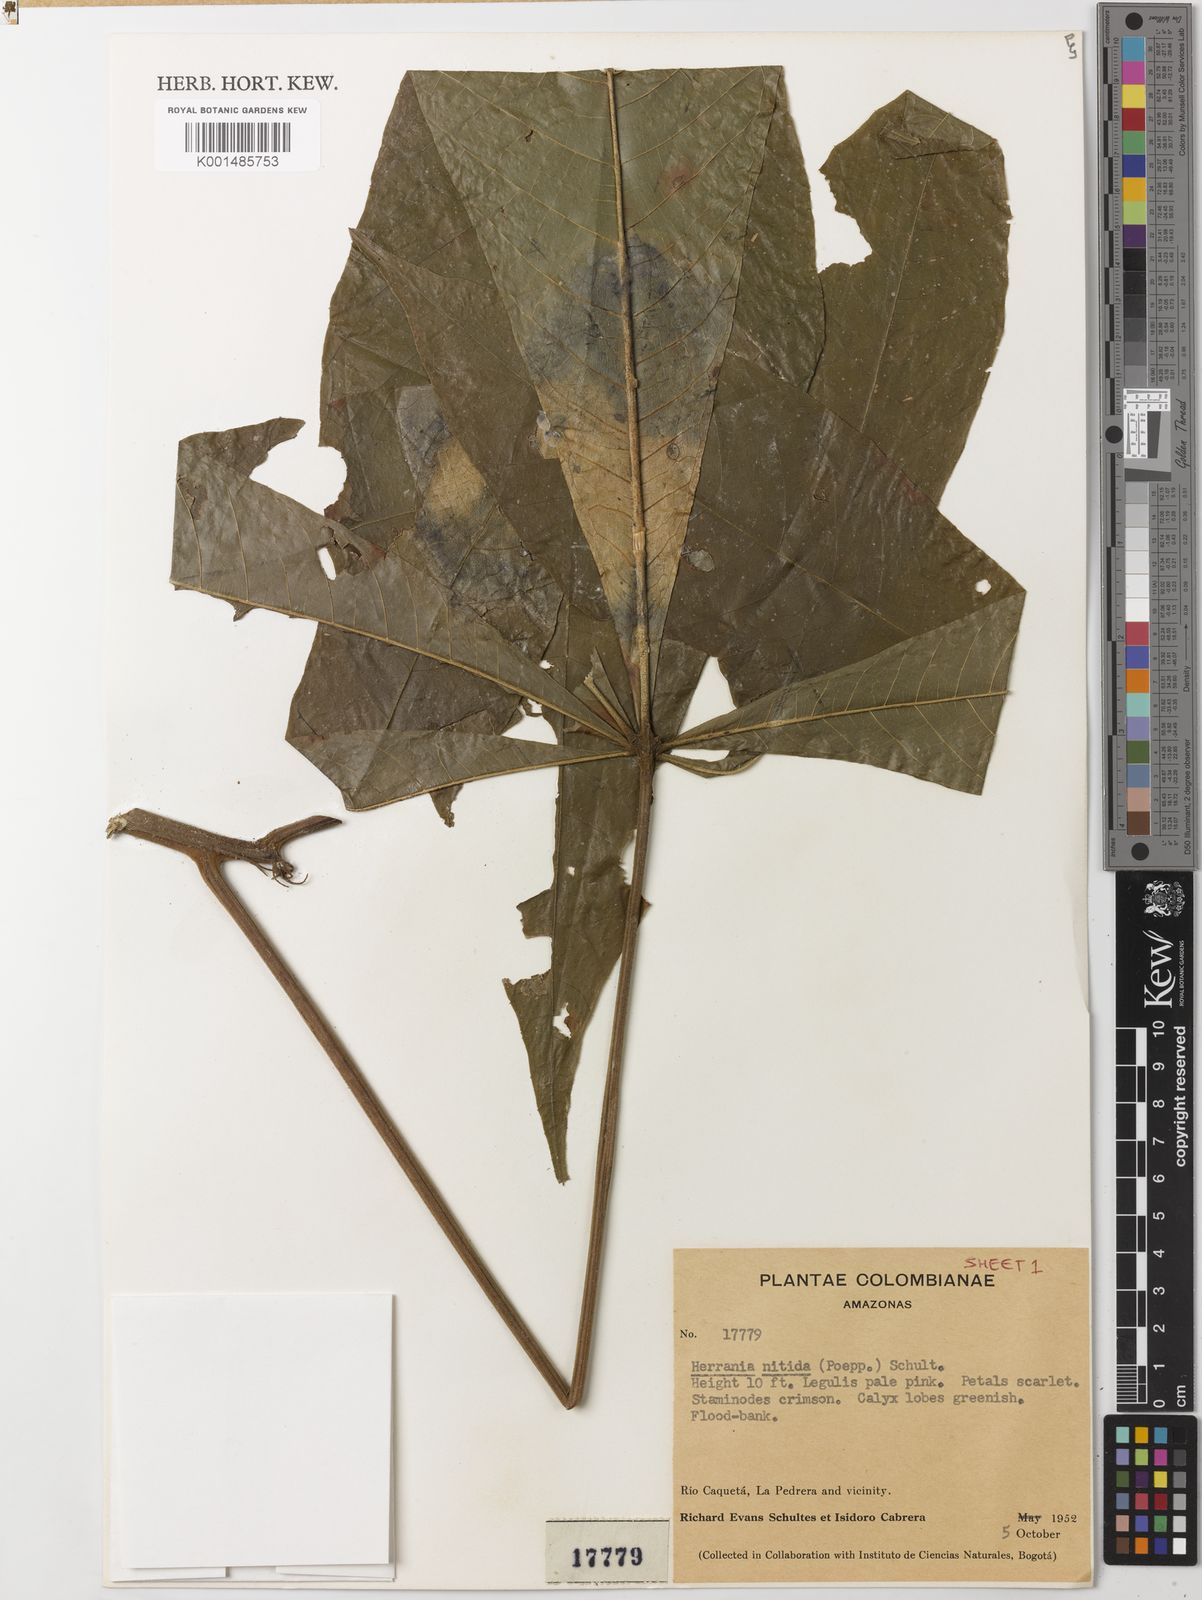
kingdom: Plantae
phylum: Tracheophyta
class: Magnoliopsida
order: Malvales
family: Malvaceae
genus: Herrania
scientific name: Herrania nitida
